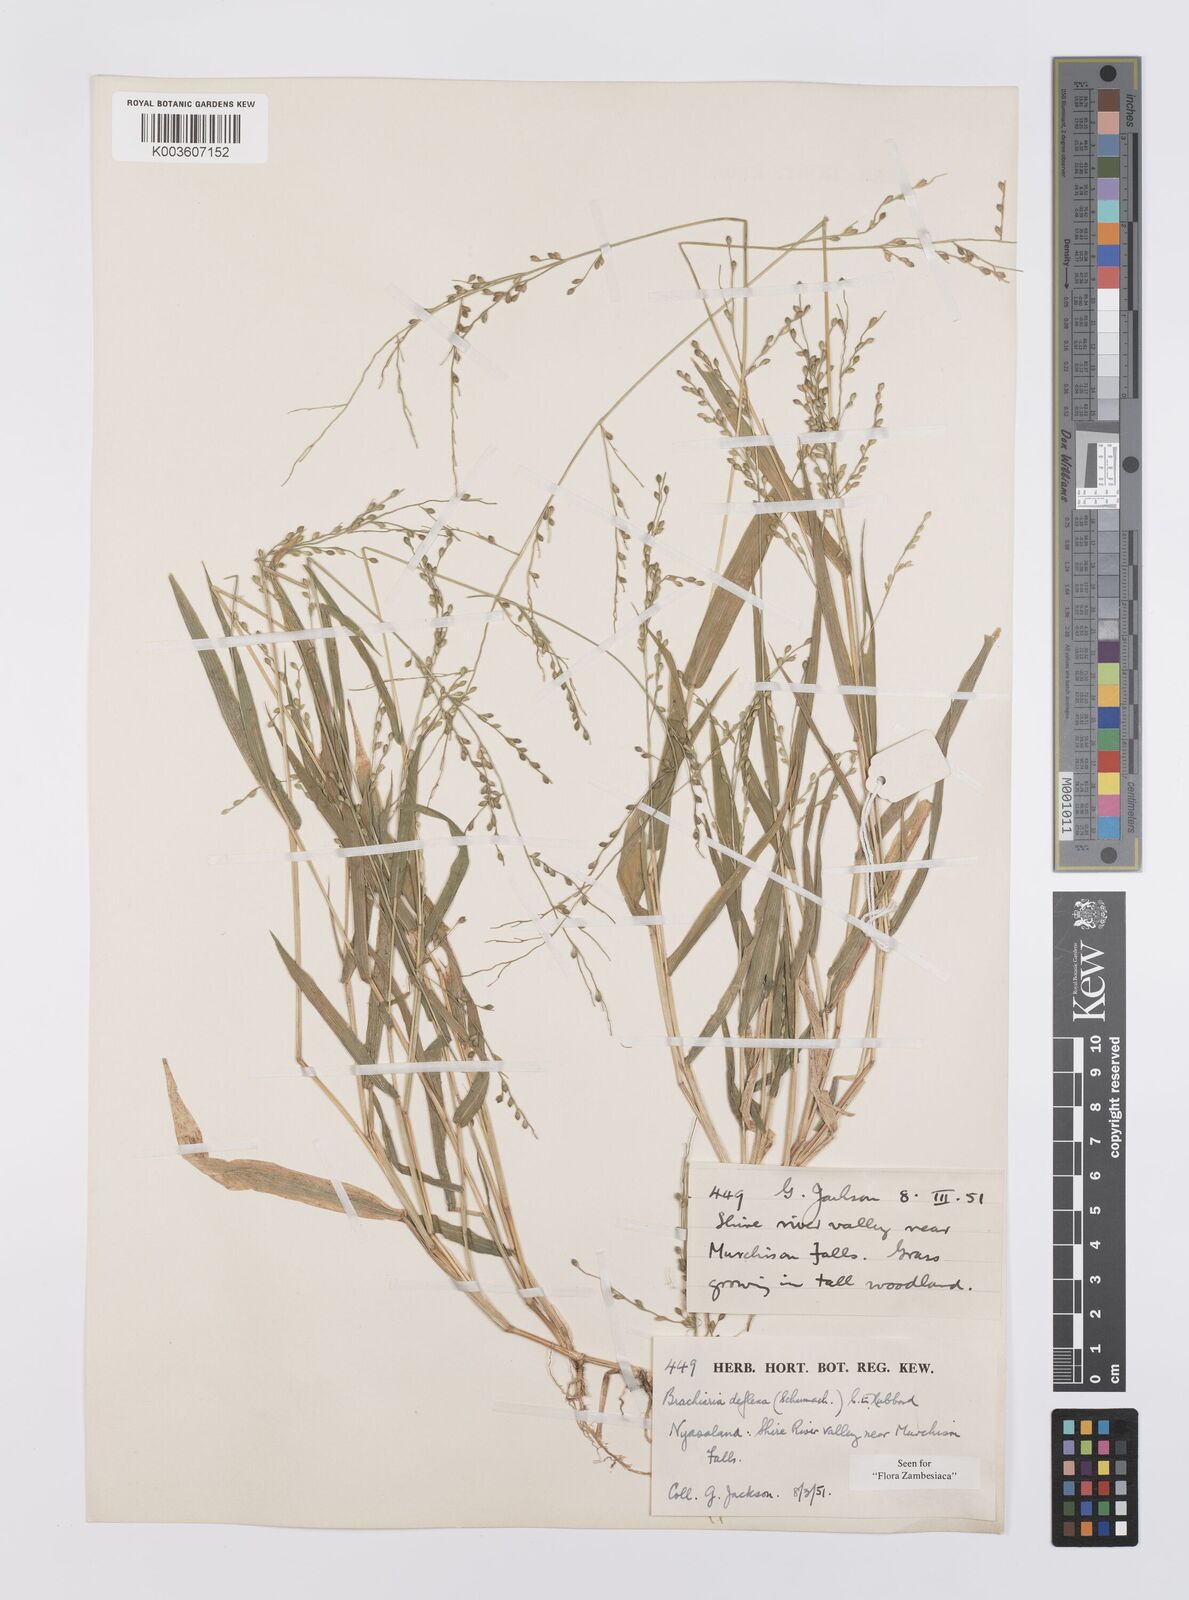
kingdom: Plantae
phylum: Tracheophyta
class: Liliopsida
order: Poales
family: Poaceae
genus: Urochloa
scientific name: Urochloa deflexa
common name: Guinea millet
